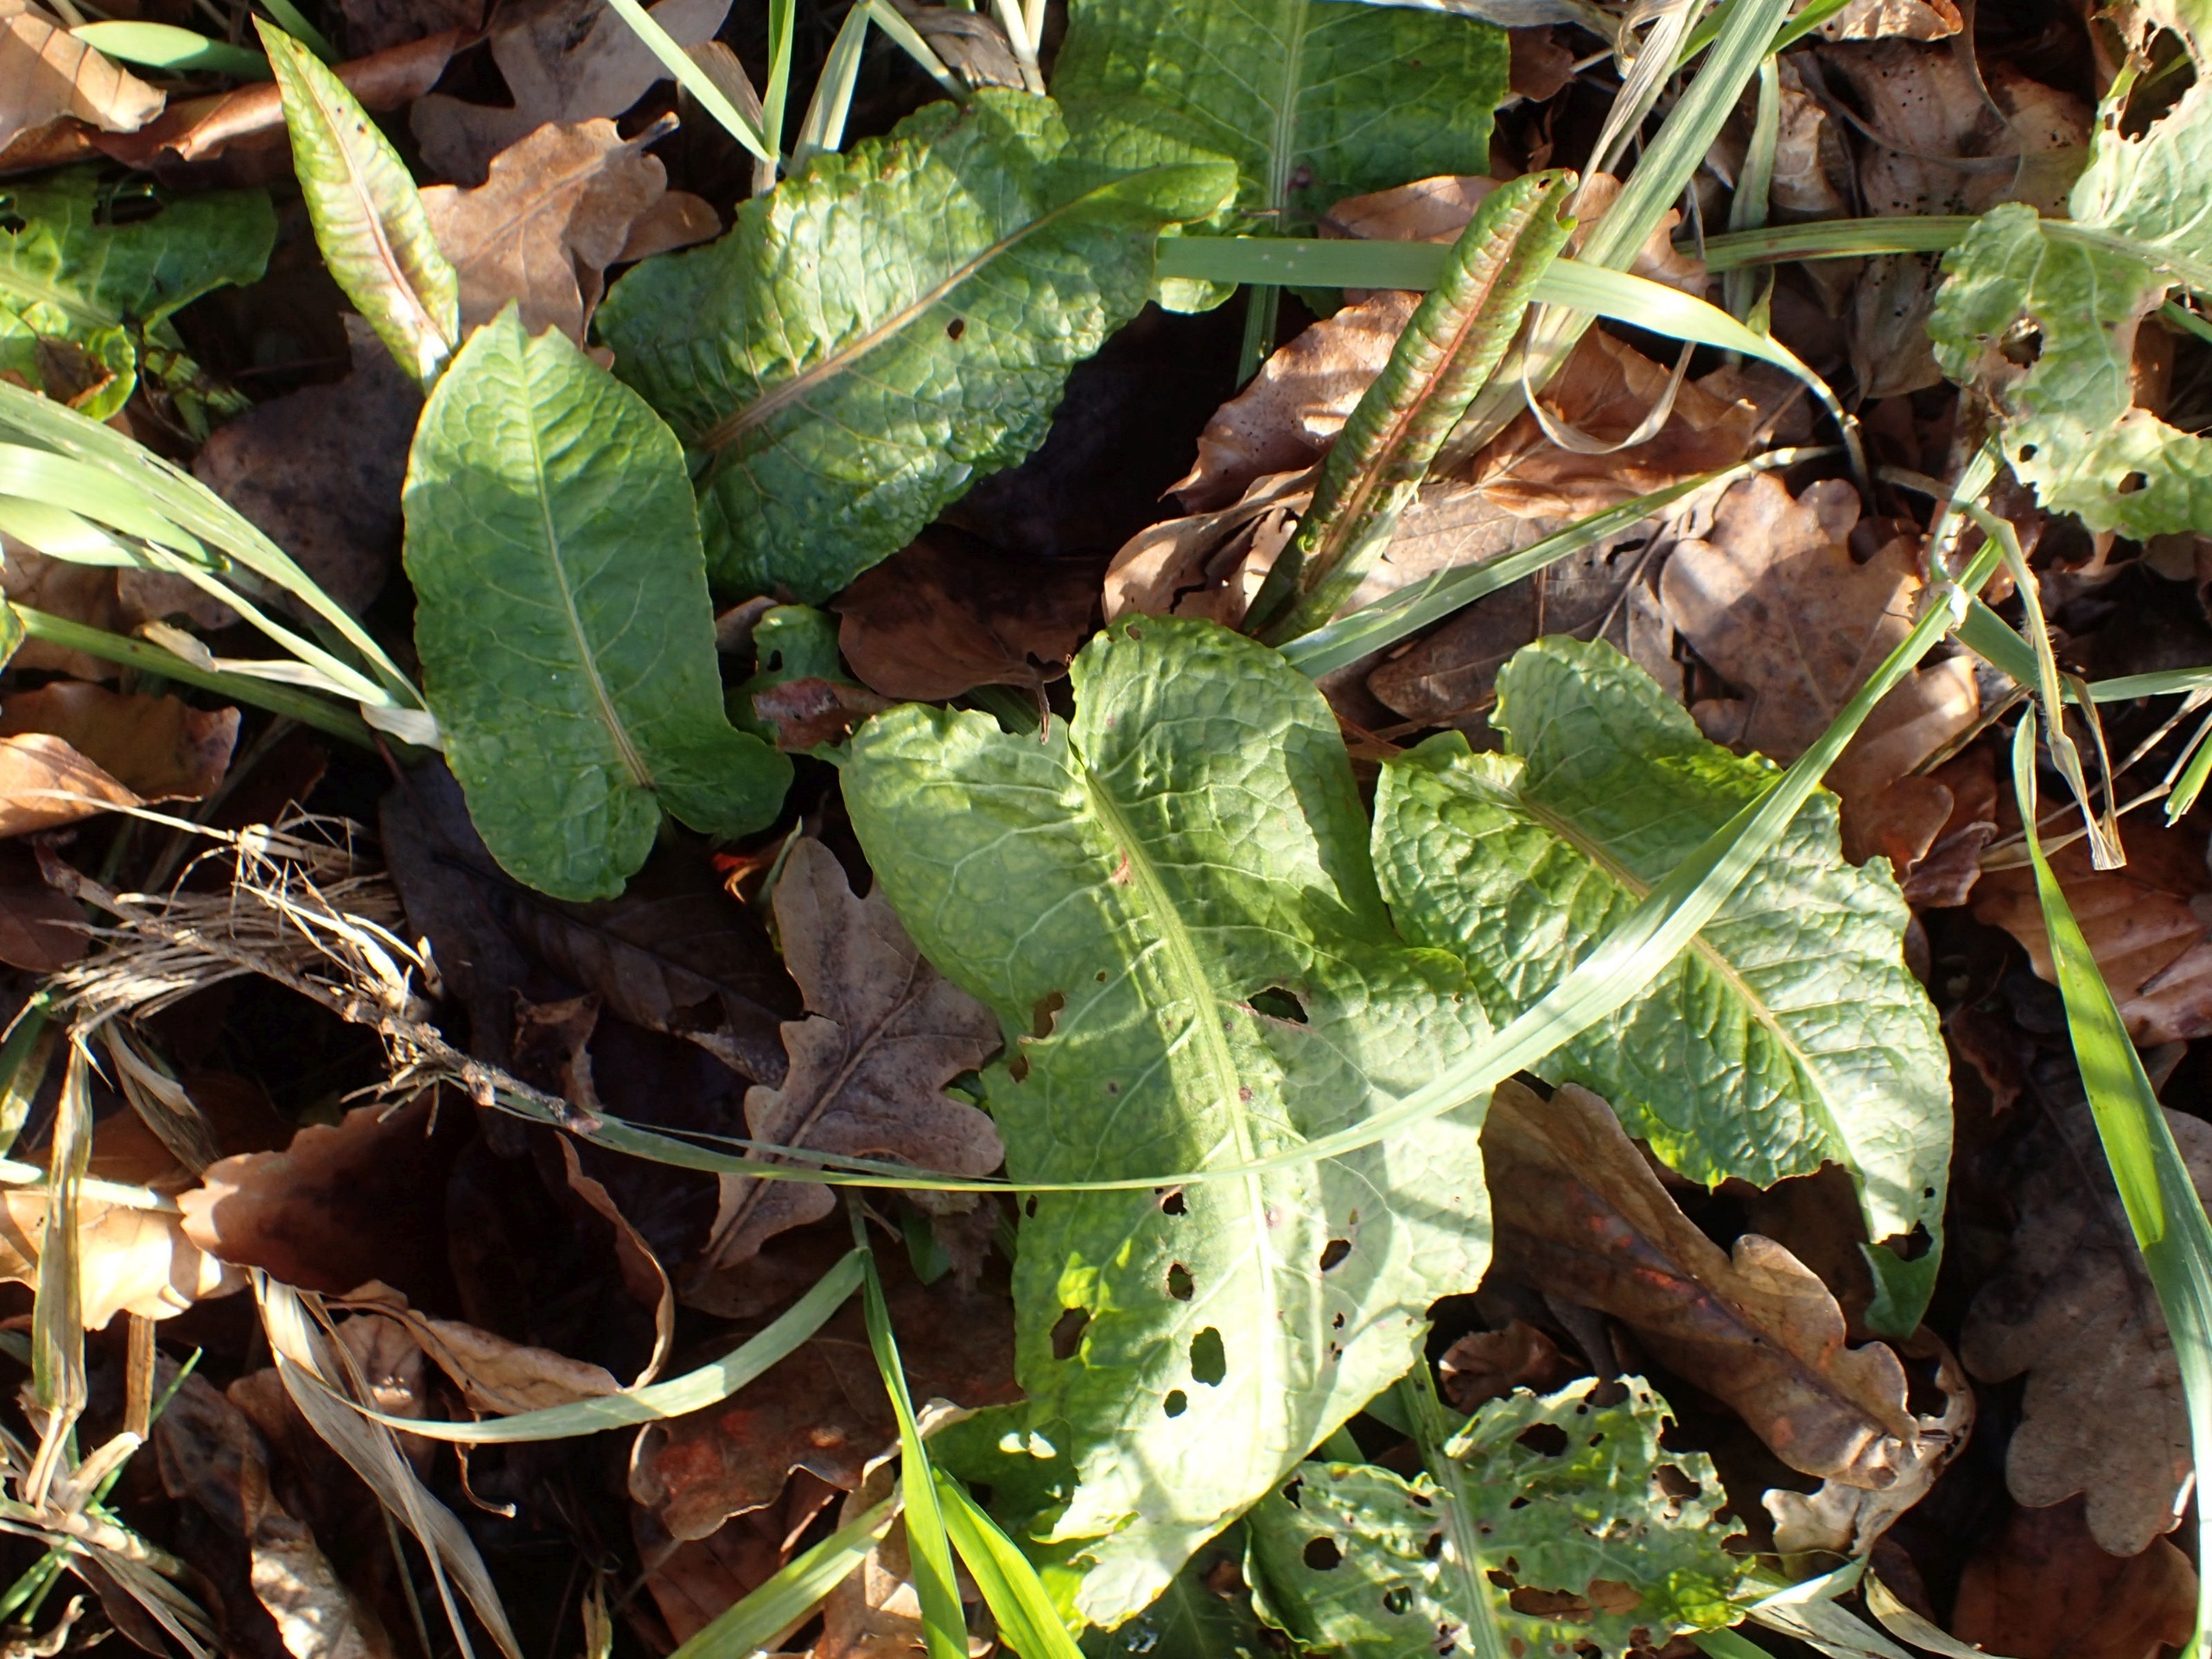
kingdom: Plantae
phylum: Tracheophyta
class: Magnoliopsida
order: Caryophyllales
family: Polygonaceae
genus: Rumex
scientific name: Rumex obtusifolius
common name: Butbladet skræppe
